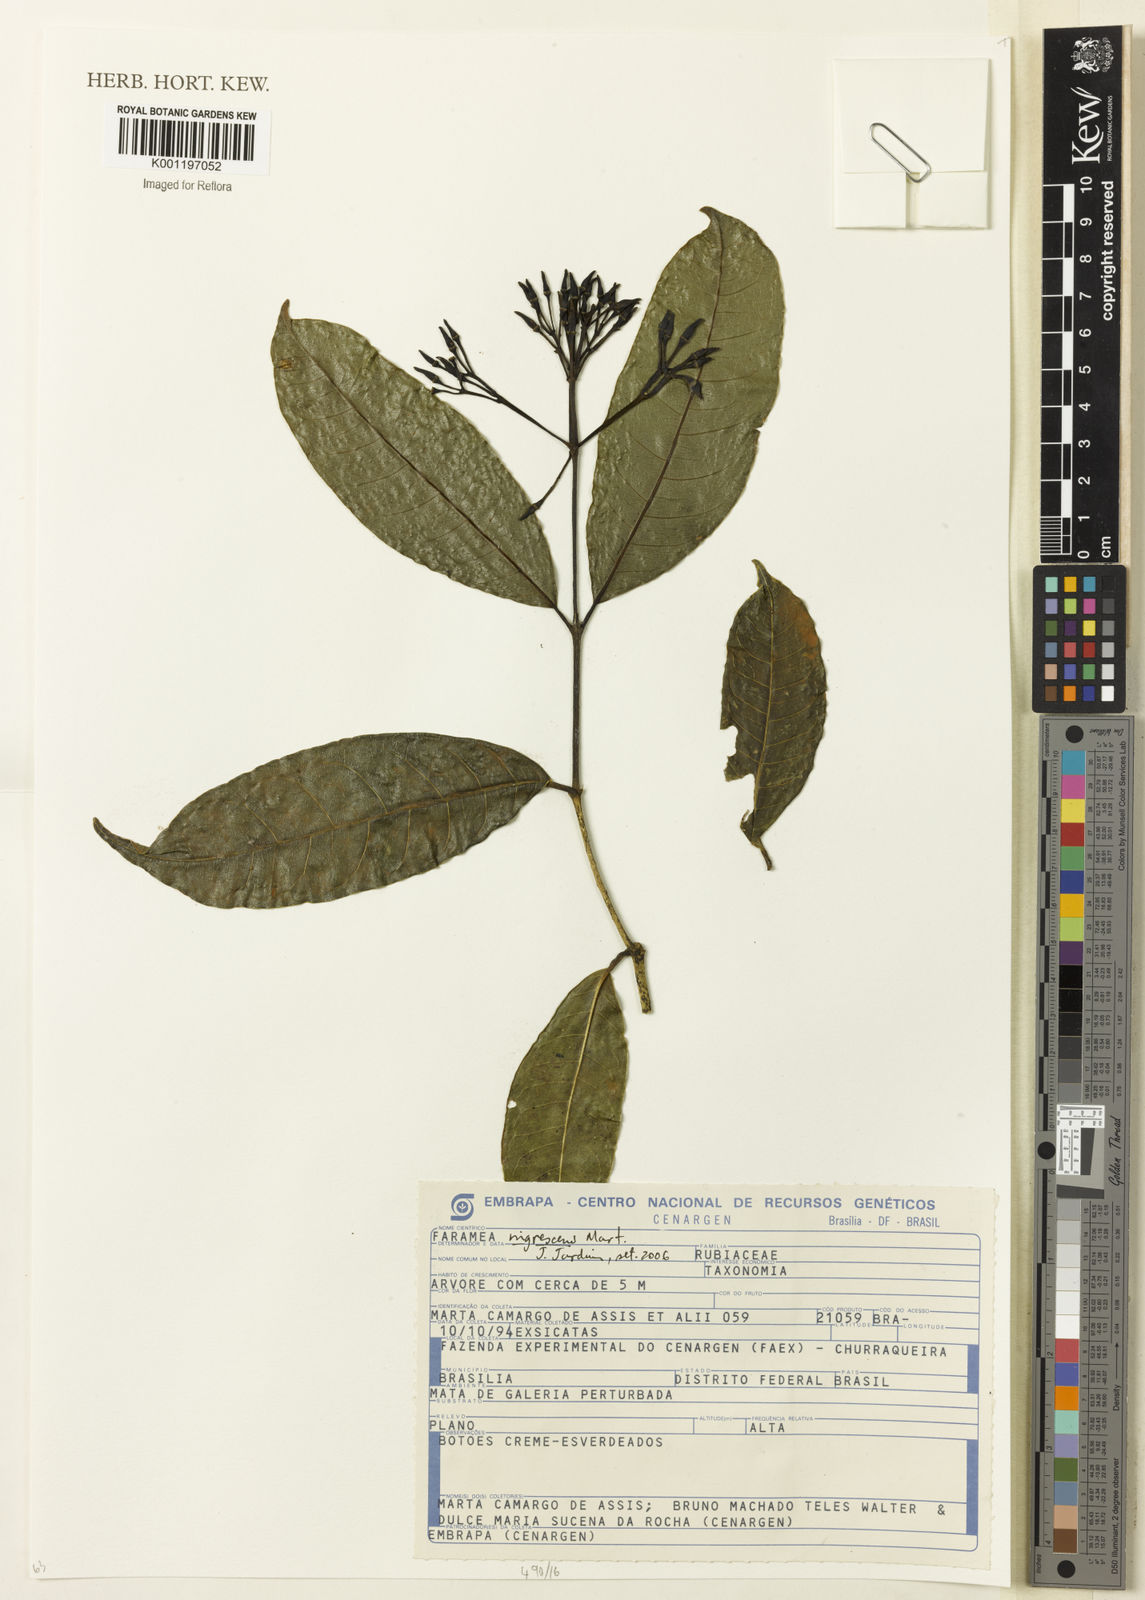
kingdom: Plantae
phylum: Tracheophyta
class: Magnoliopsida
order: Gentianales
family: Rubiaceae
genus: Faramea
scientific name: Faramea nigrescens
